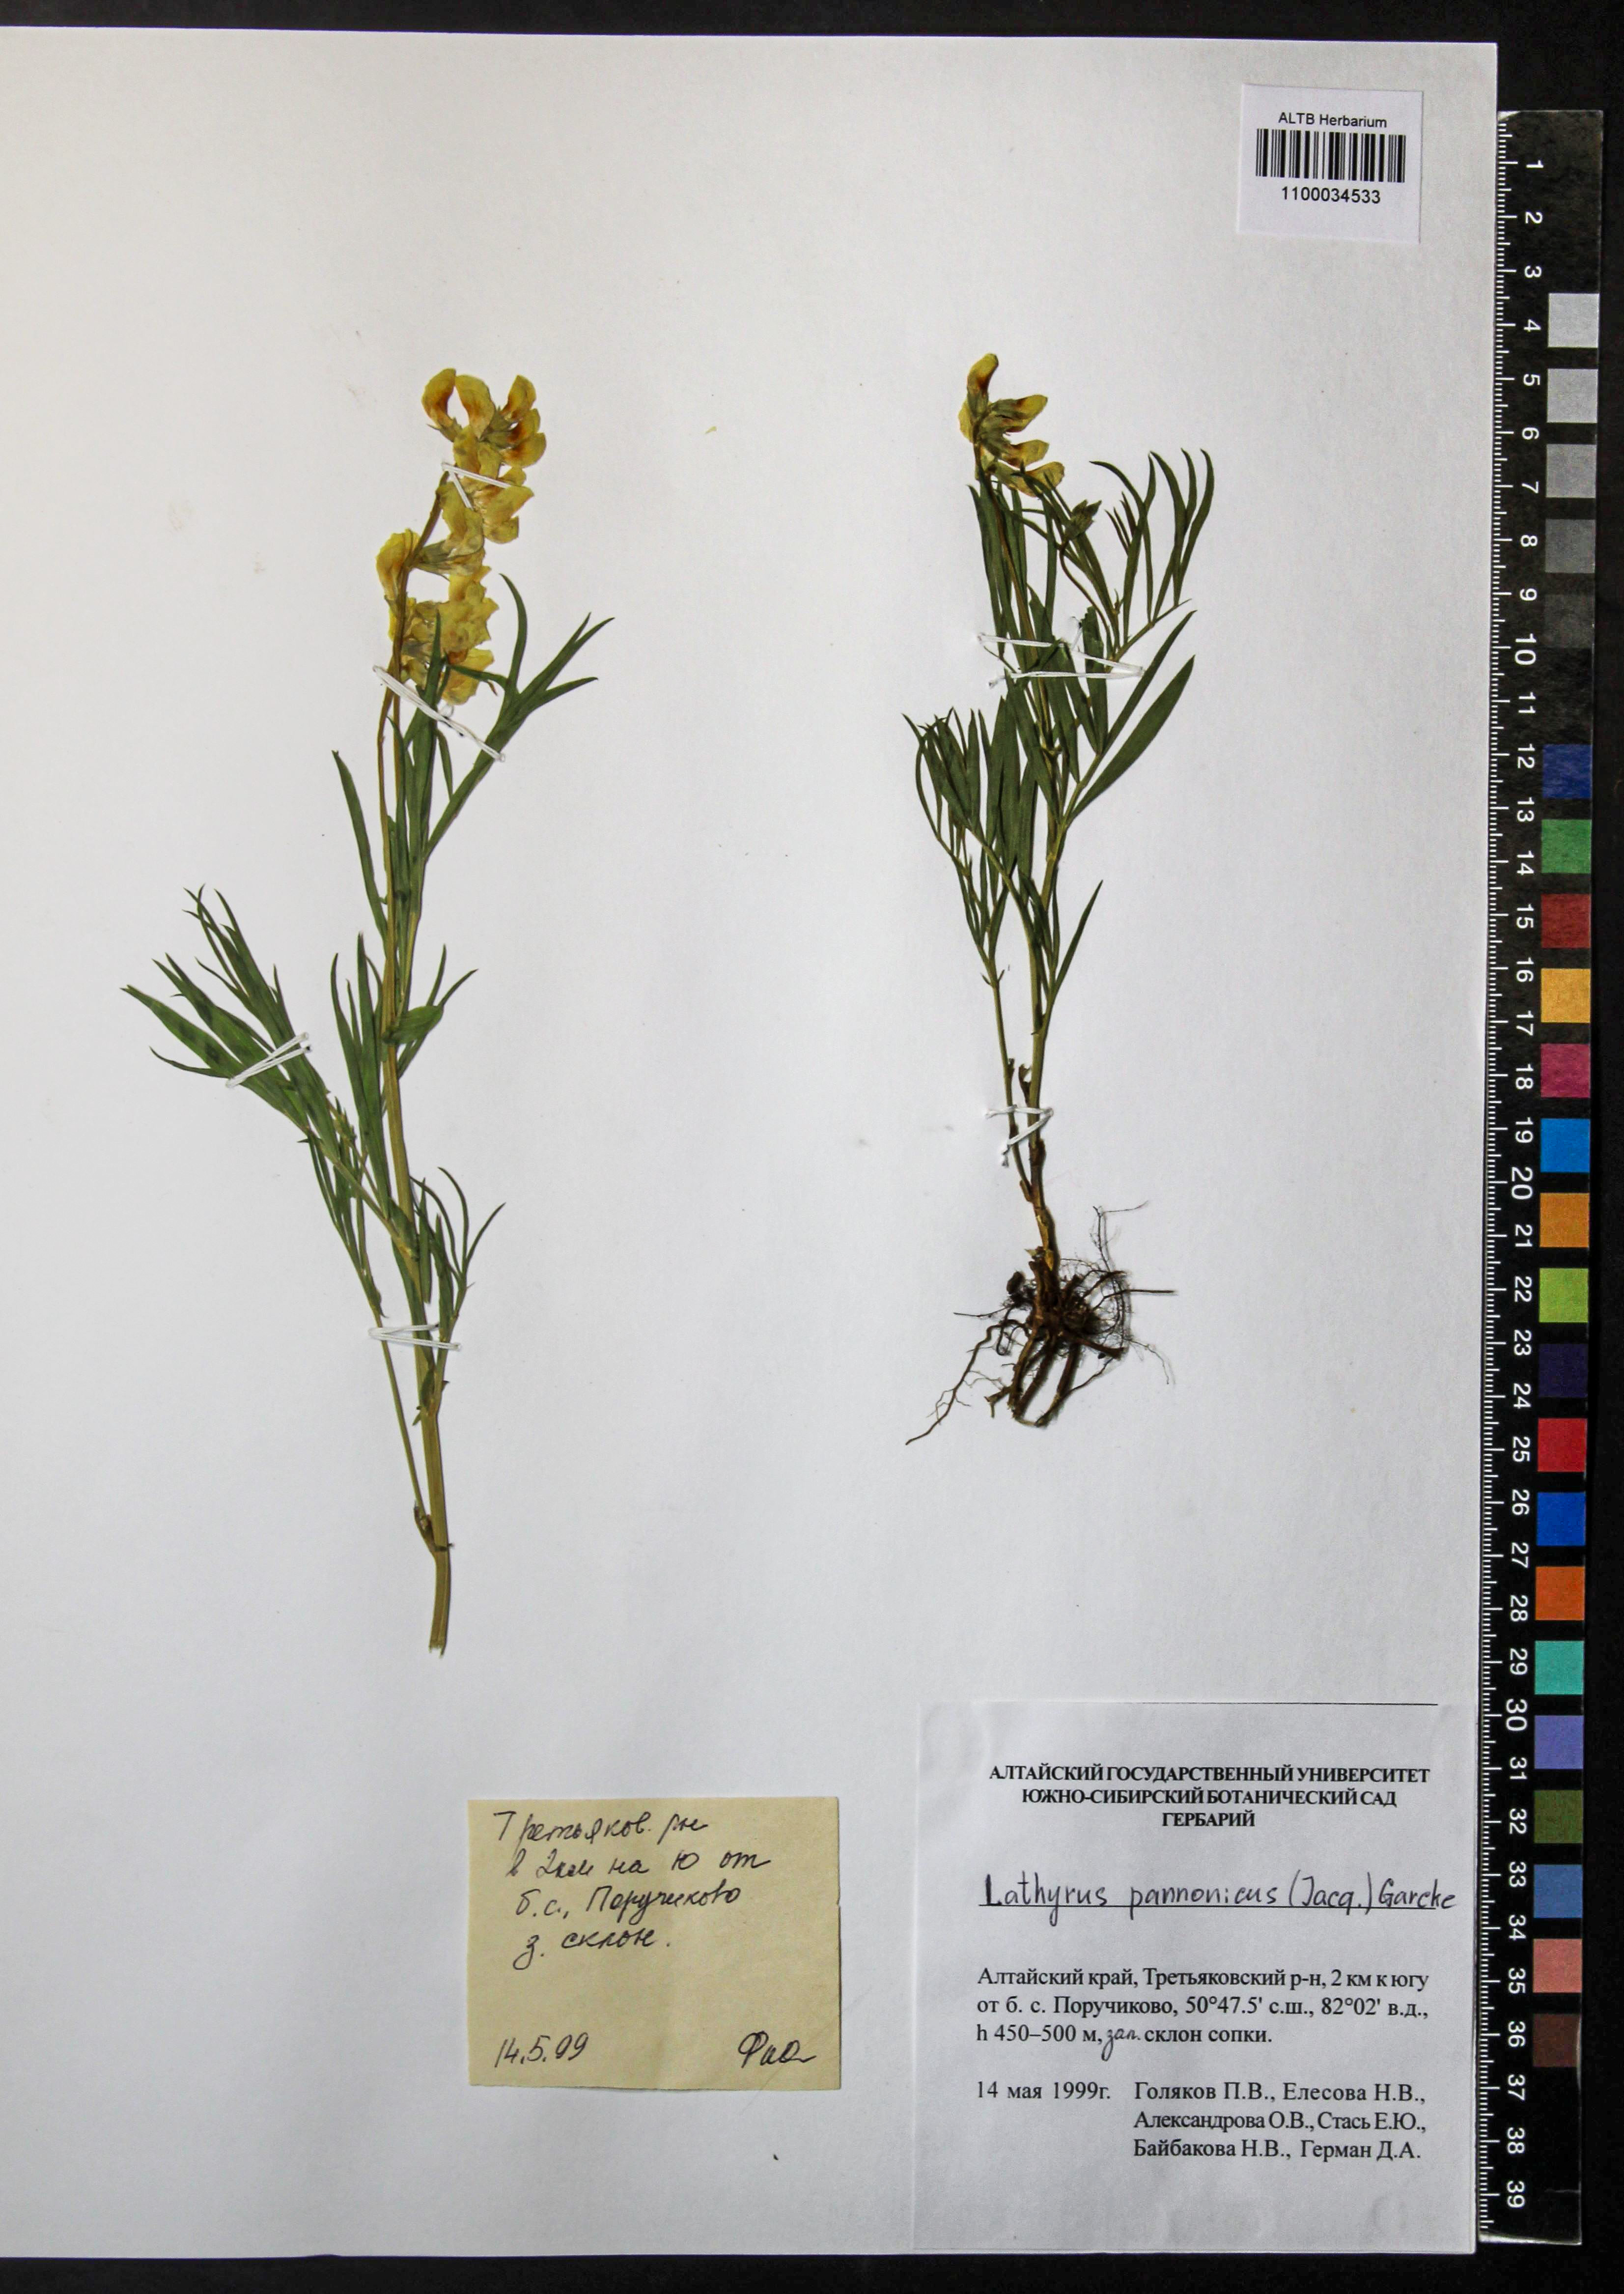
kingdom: Plantae
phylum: Tracheophyta
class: Magnoliopsida
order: Fabales
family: Fabaceae
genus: Lathyrus
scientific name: Lathyrus pannonicus
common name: Pea
